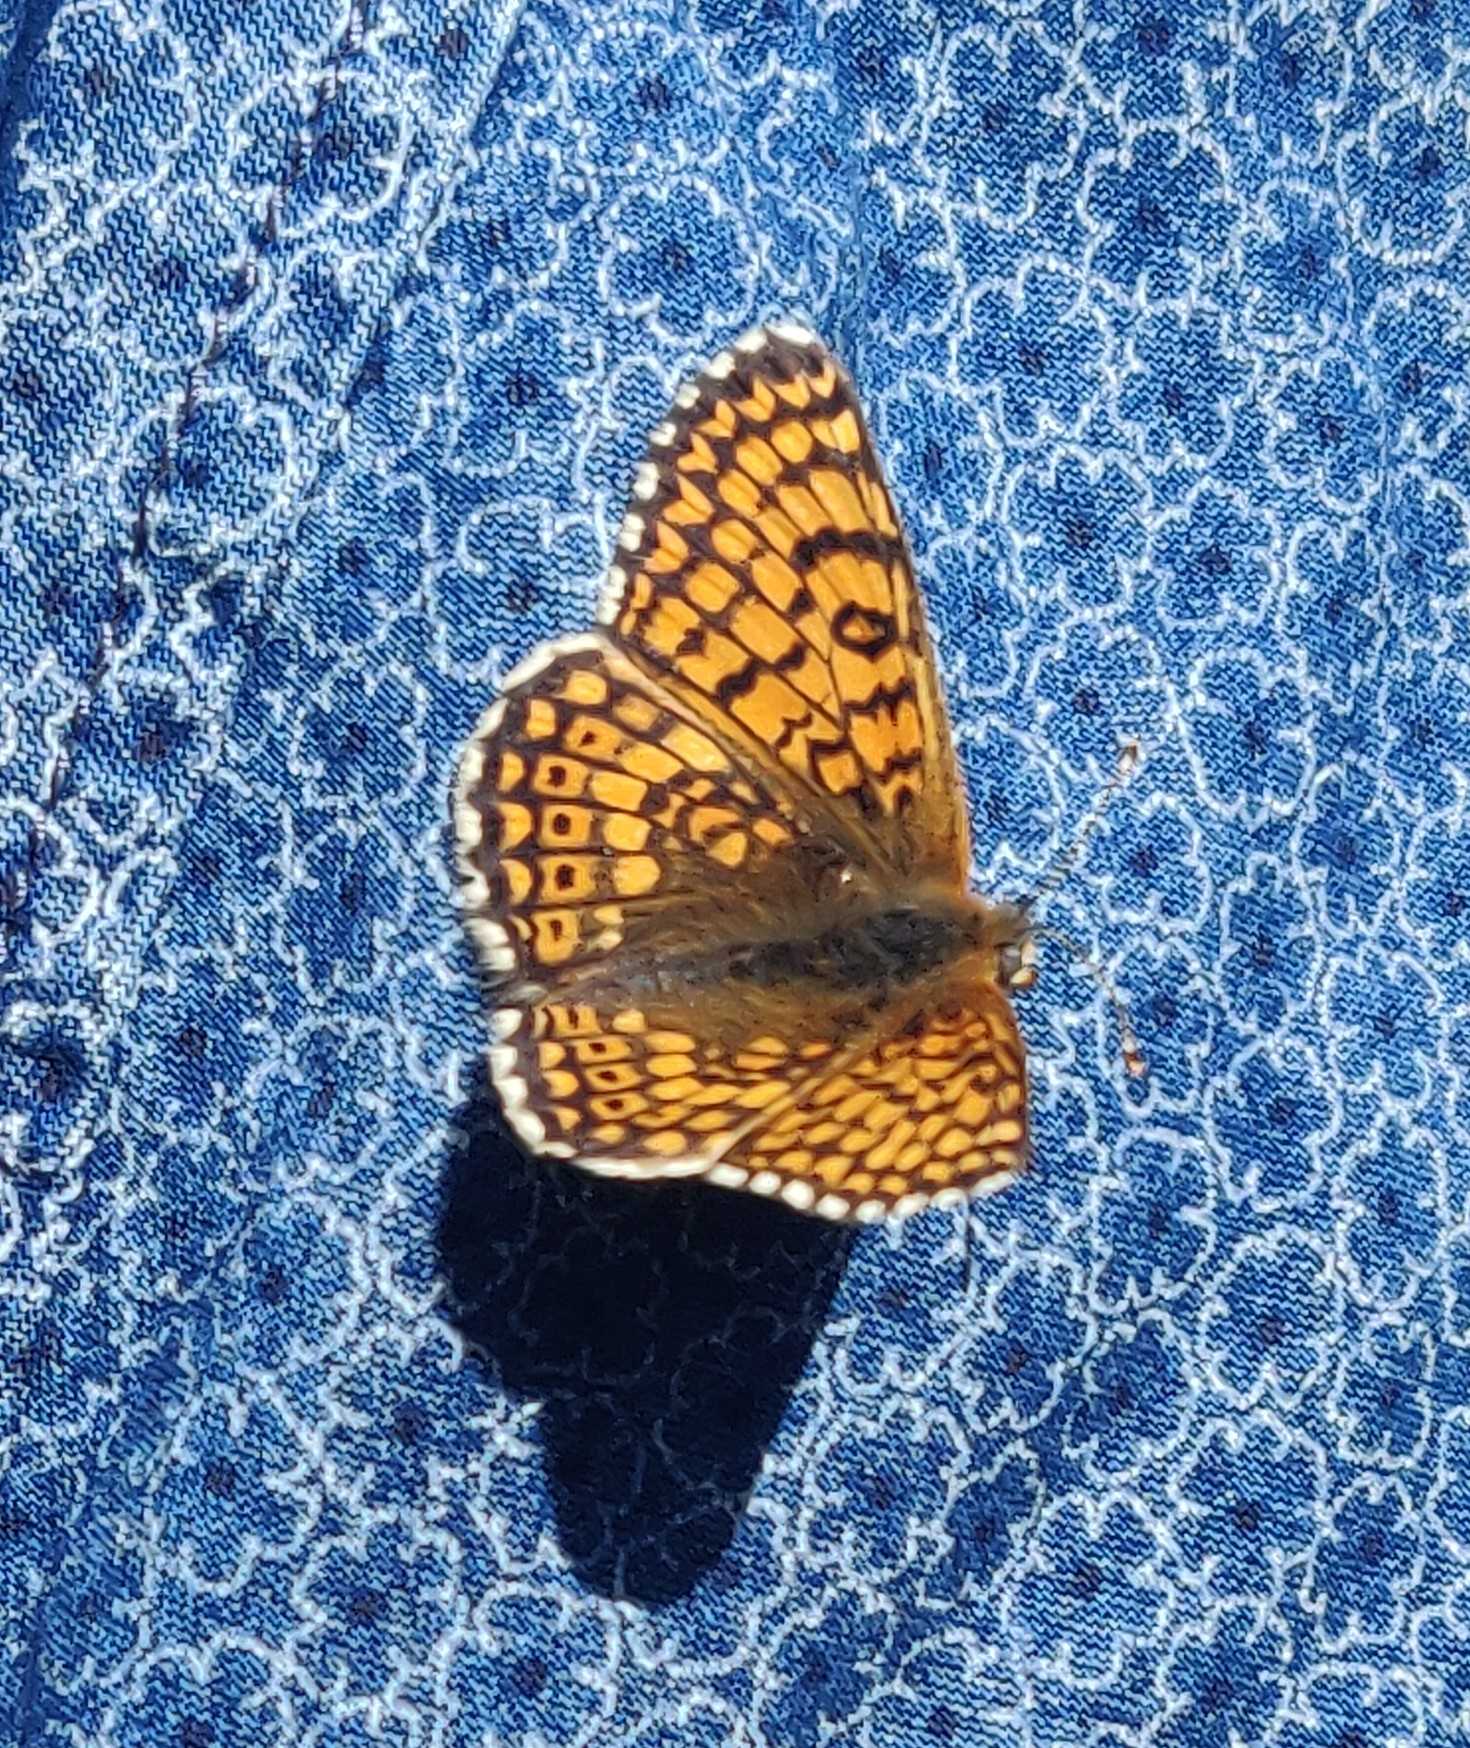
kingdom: Animalia
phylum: Arthropoda
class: Insecta
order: Lepidoptera
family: Nymphalidae
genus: Melitaea
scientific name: Melitaea cinxia
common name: Okkergul pletvinge
